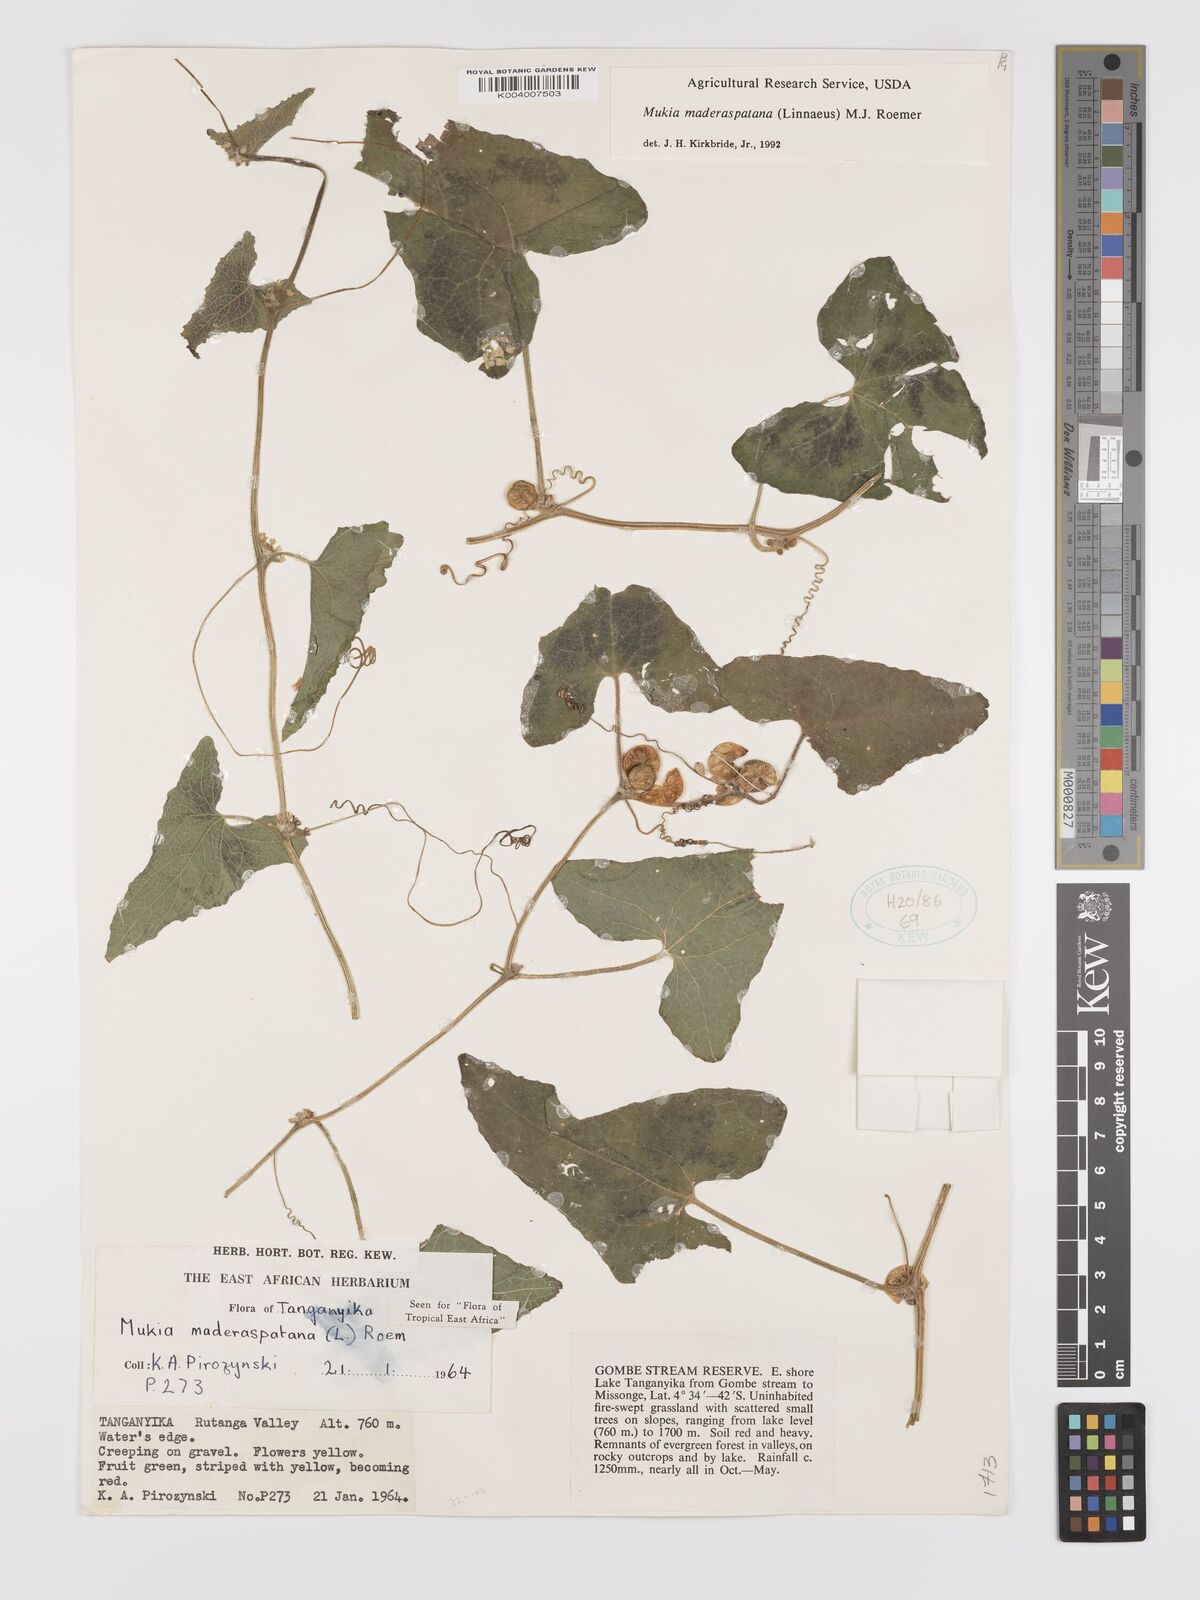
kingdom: Plantae
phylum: Tracheophyta
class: Magnoliopsida
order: Cucurbitales
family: Cucurbitaceae
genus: Cucumis
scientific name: Cucumis maderaspatanus
